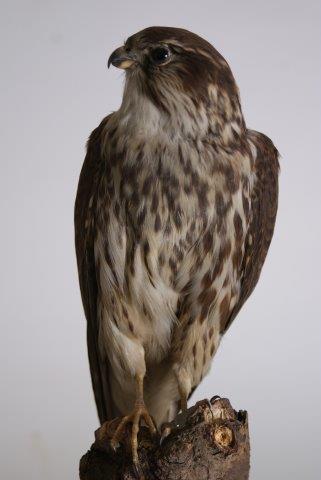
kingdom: Animalia
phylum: Chordata
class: Aves
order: Falconiformes
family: Falconidae
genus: Falco
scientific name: Falco columbarius
